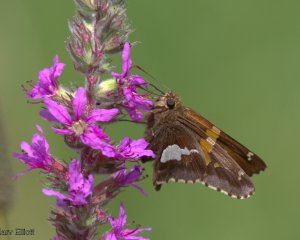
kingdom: Animalia
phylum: Arthropoda
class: Insecta
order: Lepidoptera
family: Hesperiidae
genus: Epargyreus
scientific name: Epargyreus clarus
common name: Silver-spotted Skipper
